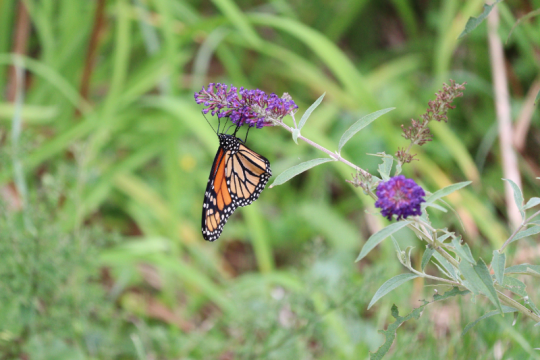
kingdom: Animalia
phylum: Arthropoda
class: Insecta
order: Lepidoptera
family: Nymphalidae
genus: Danaus
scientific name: Danaus plexippus
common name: Monarch
